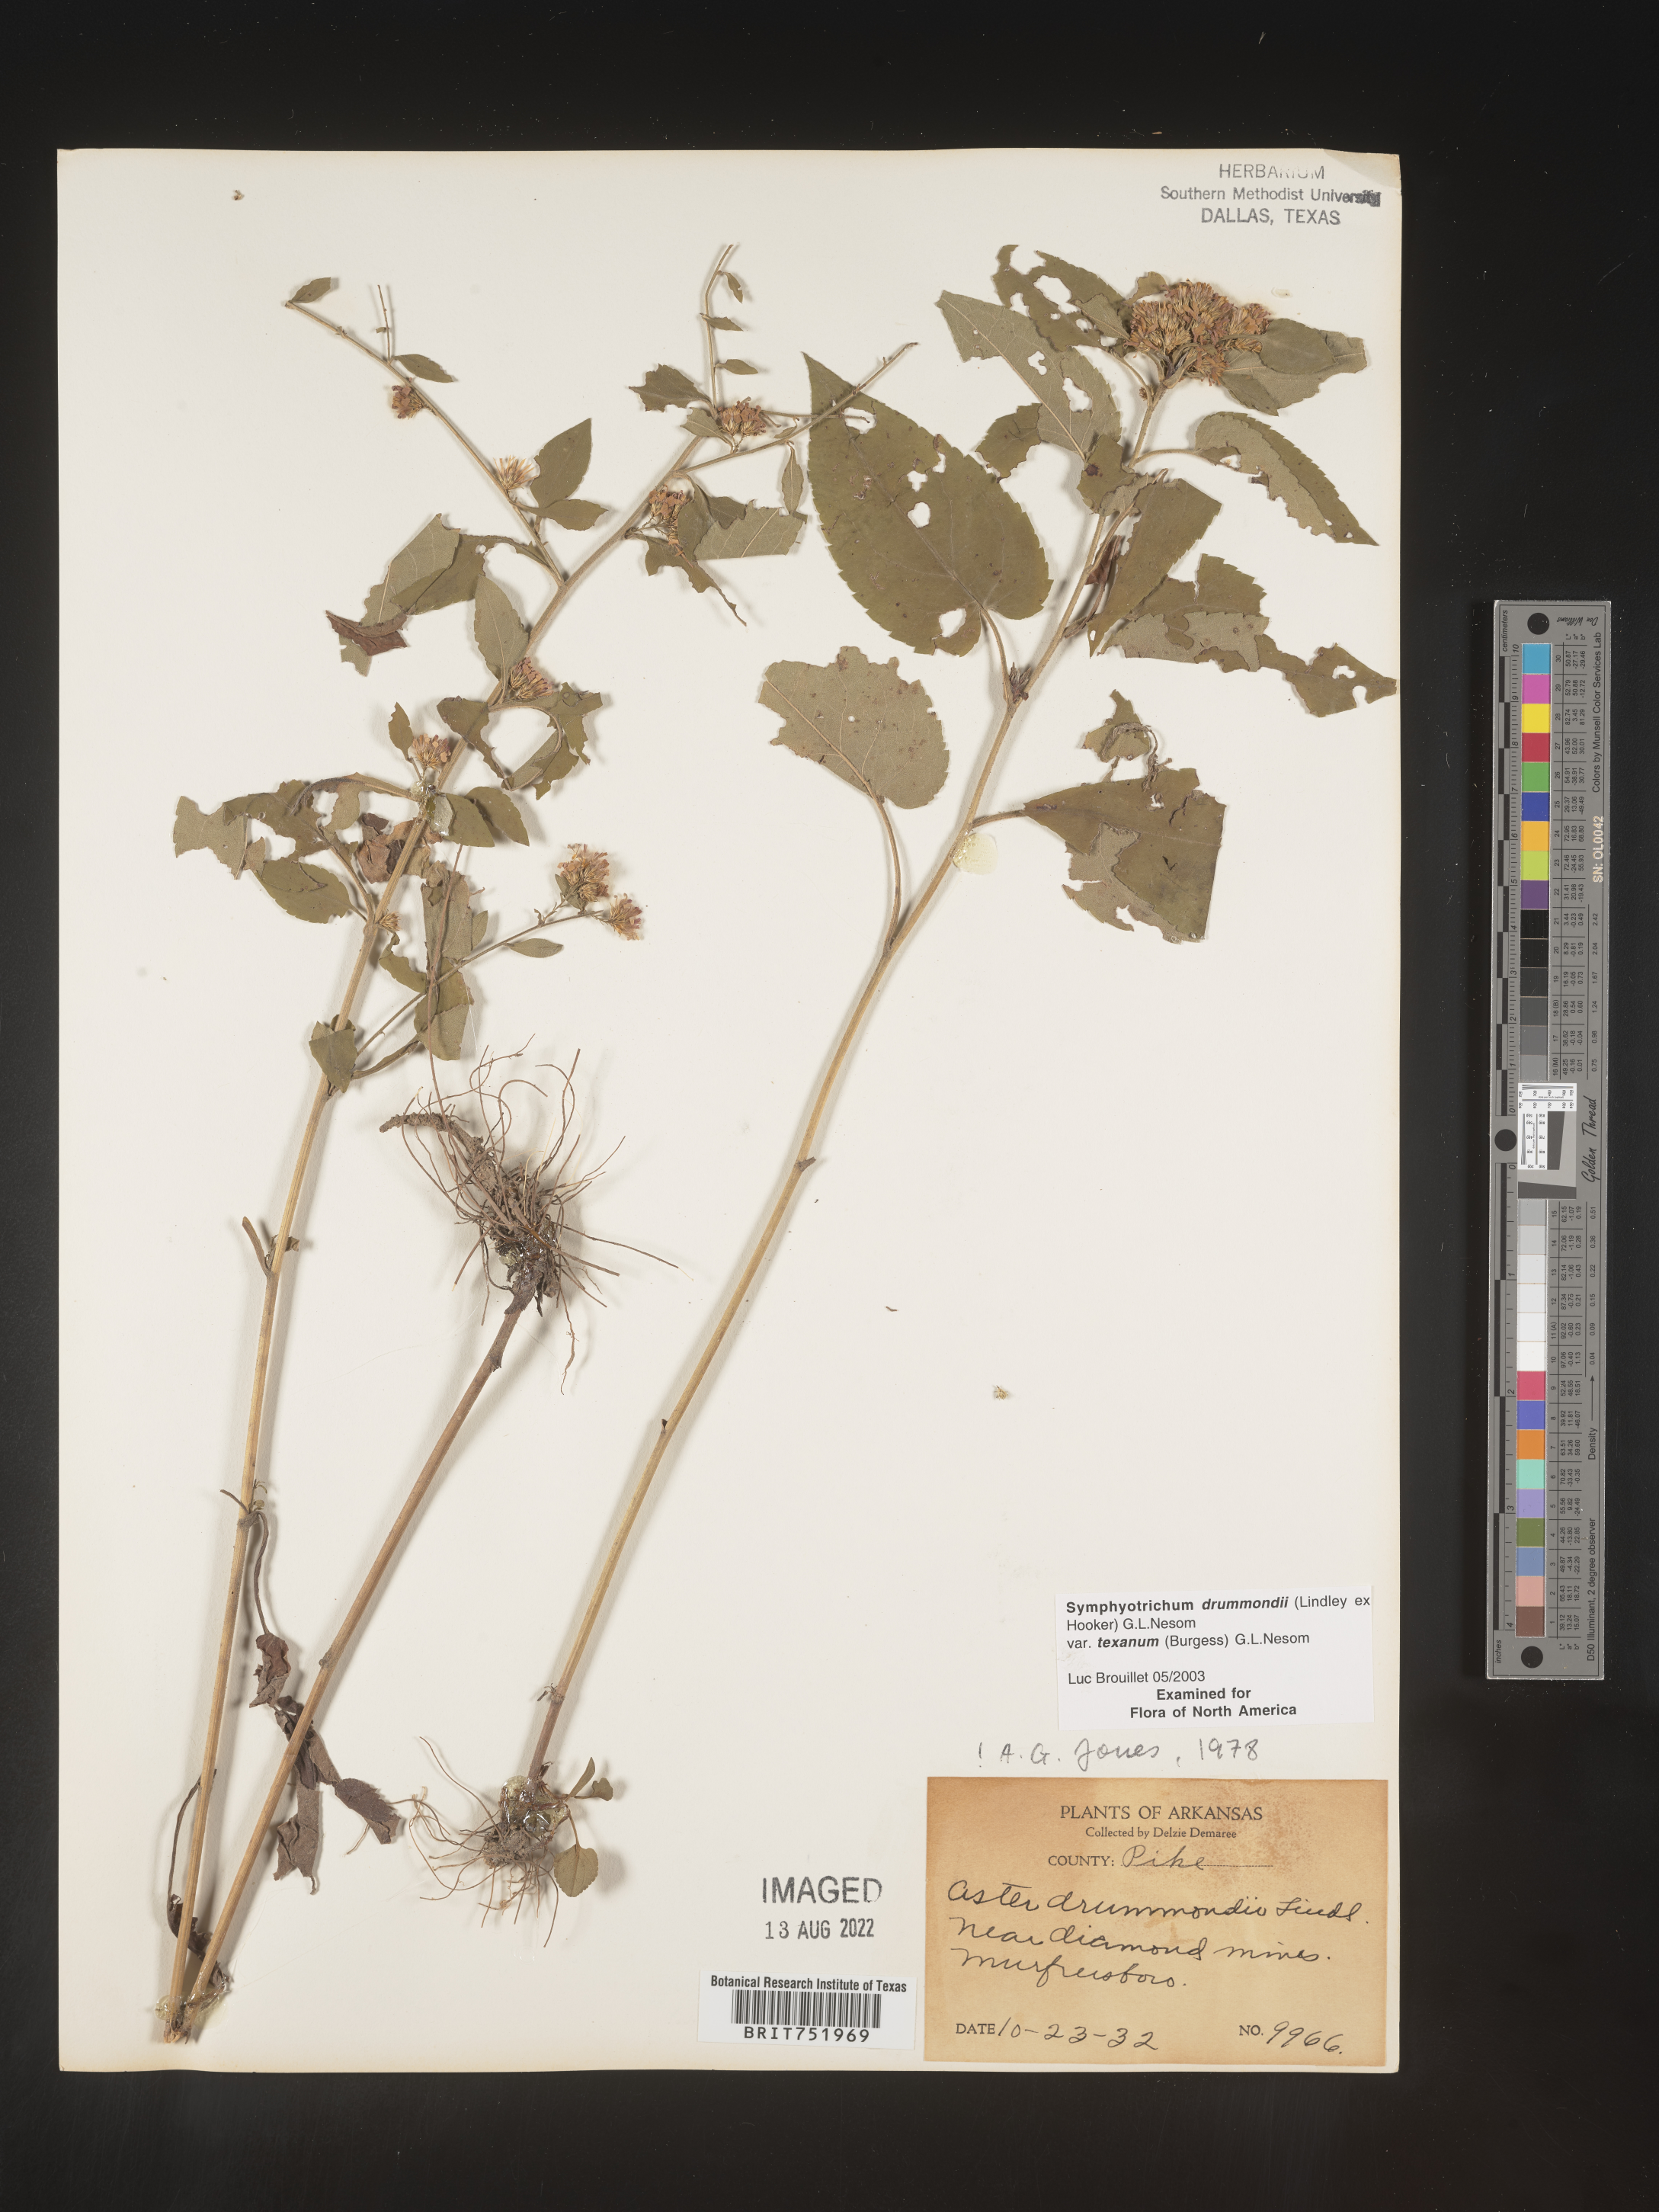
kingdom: Plantae
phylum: Tracheophyta
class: Magnoliopsida
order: Asterales
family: Asteraceae
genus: Symphyotrichum
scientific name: Symphyotrichum drummondii
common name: Drummond's aster
